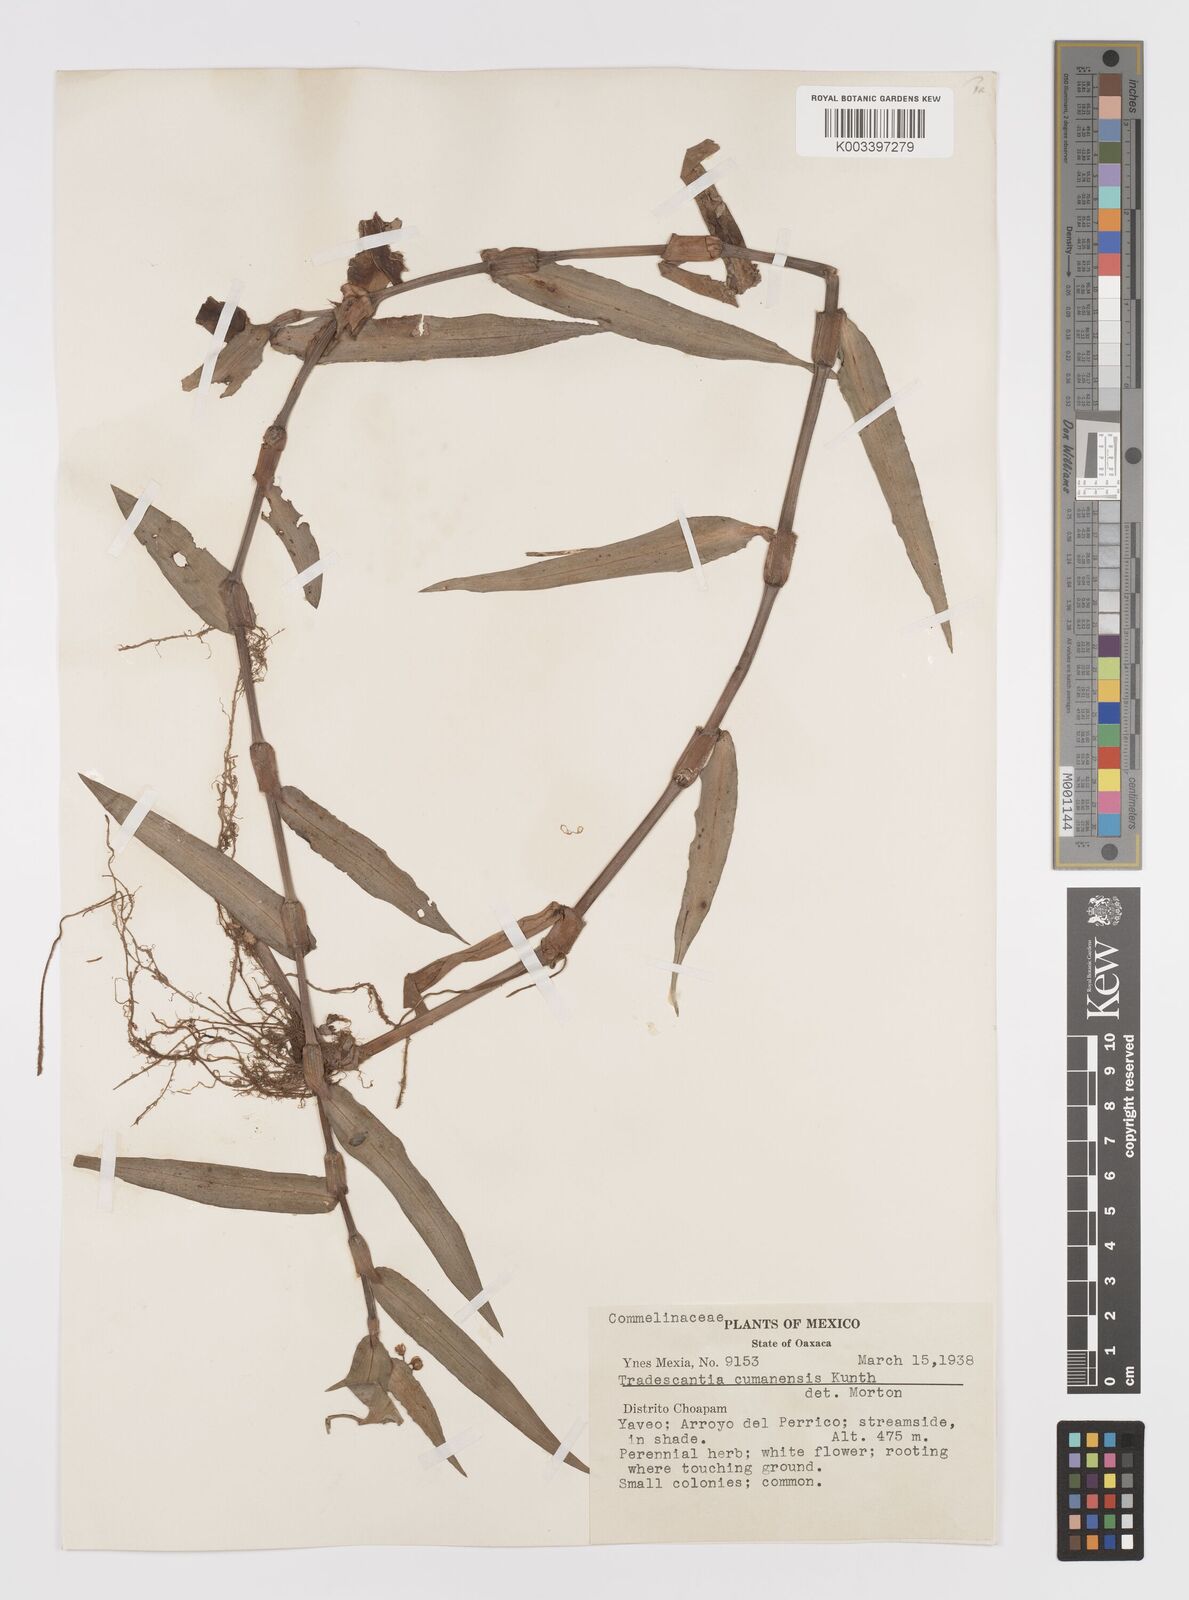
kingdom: Plantae
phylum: Tracheophyta
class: Liliopsida
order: Commelinales
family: Commelinaceae
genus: Callisia
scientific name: Callisia serrulata
